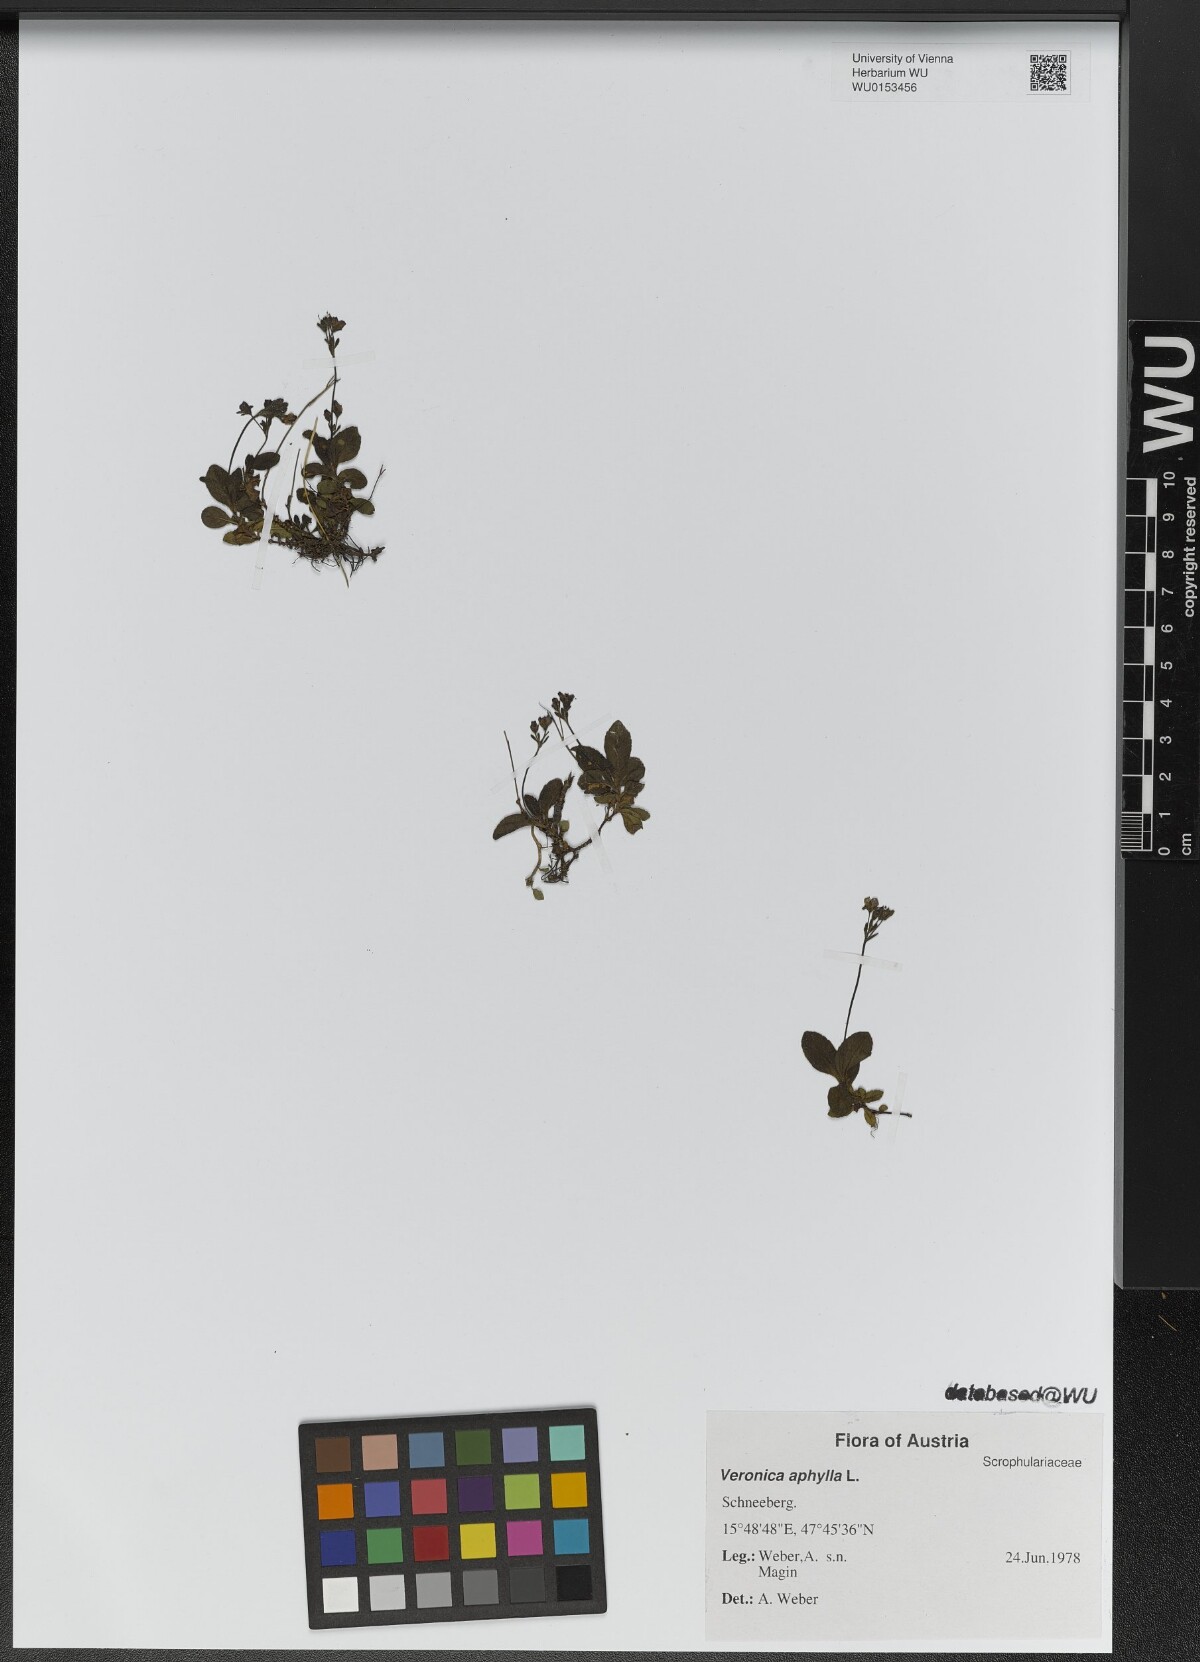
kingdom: Plantae
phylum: Tracheophyta
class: Magnoliopsida
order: Lamiales
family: Plantaginaceae
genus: Veronica
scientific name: Veronica aphylla
